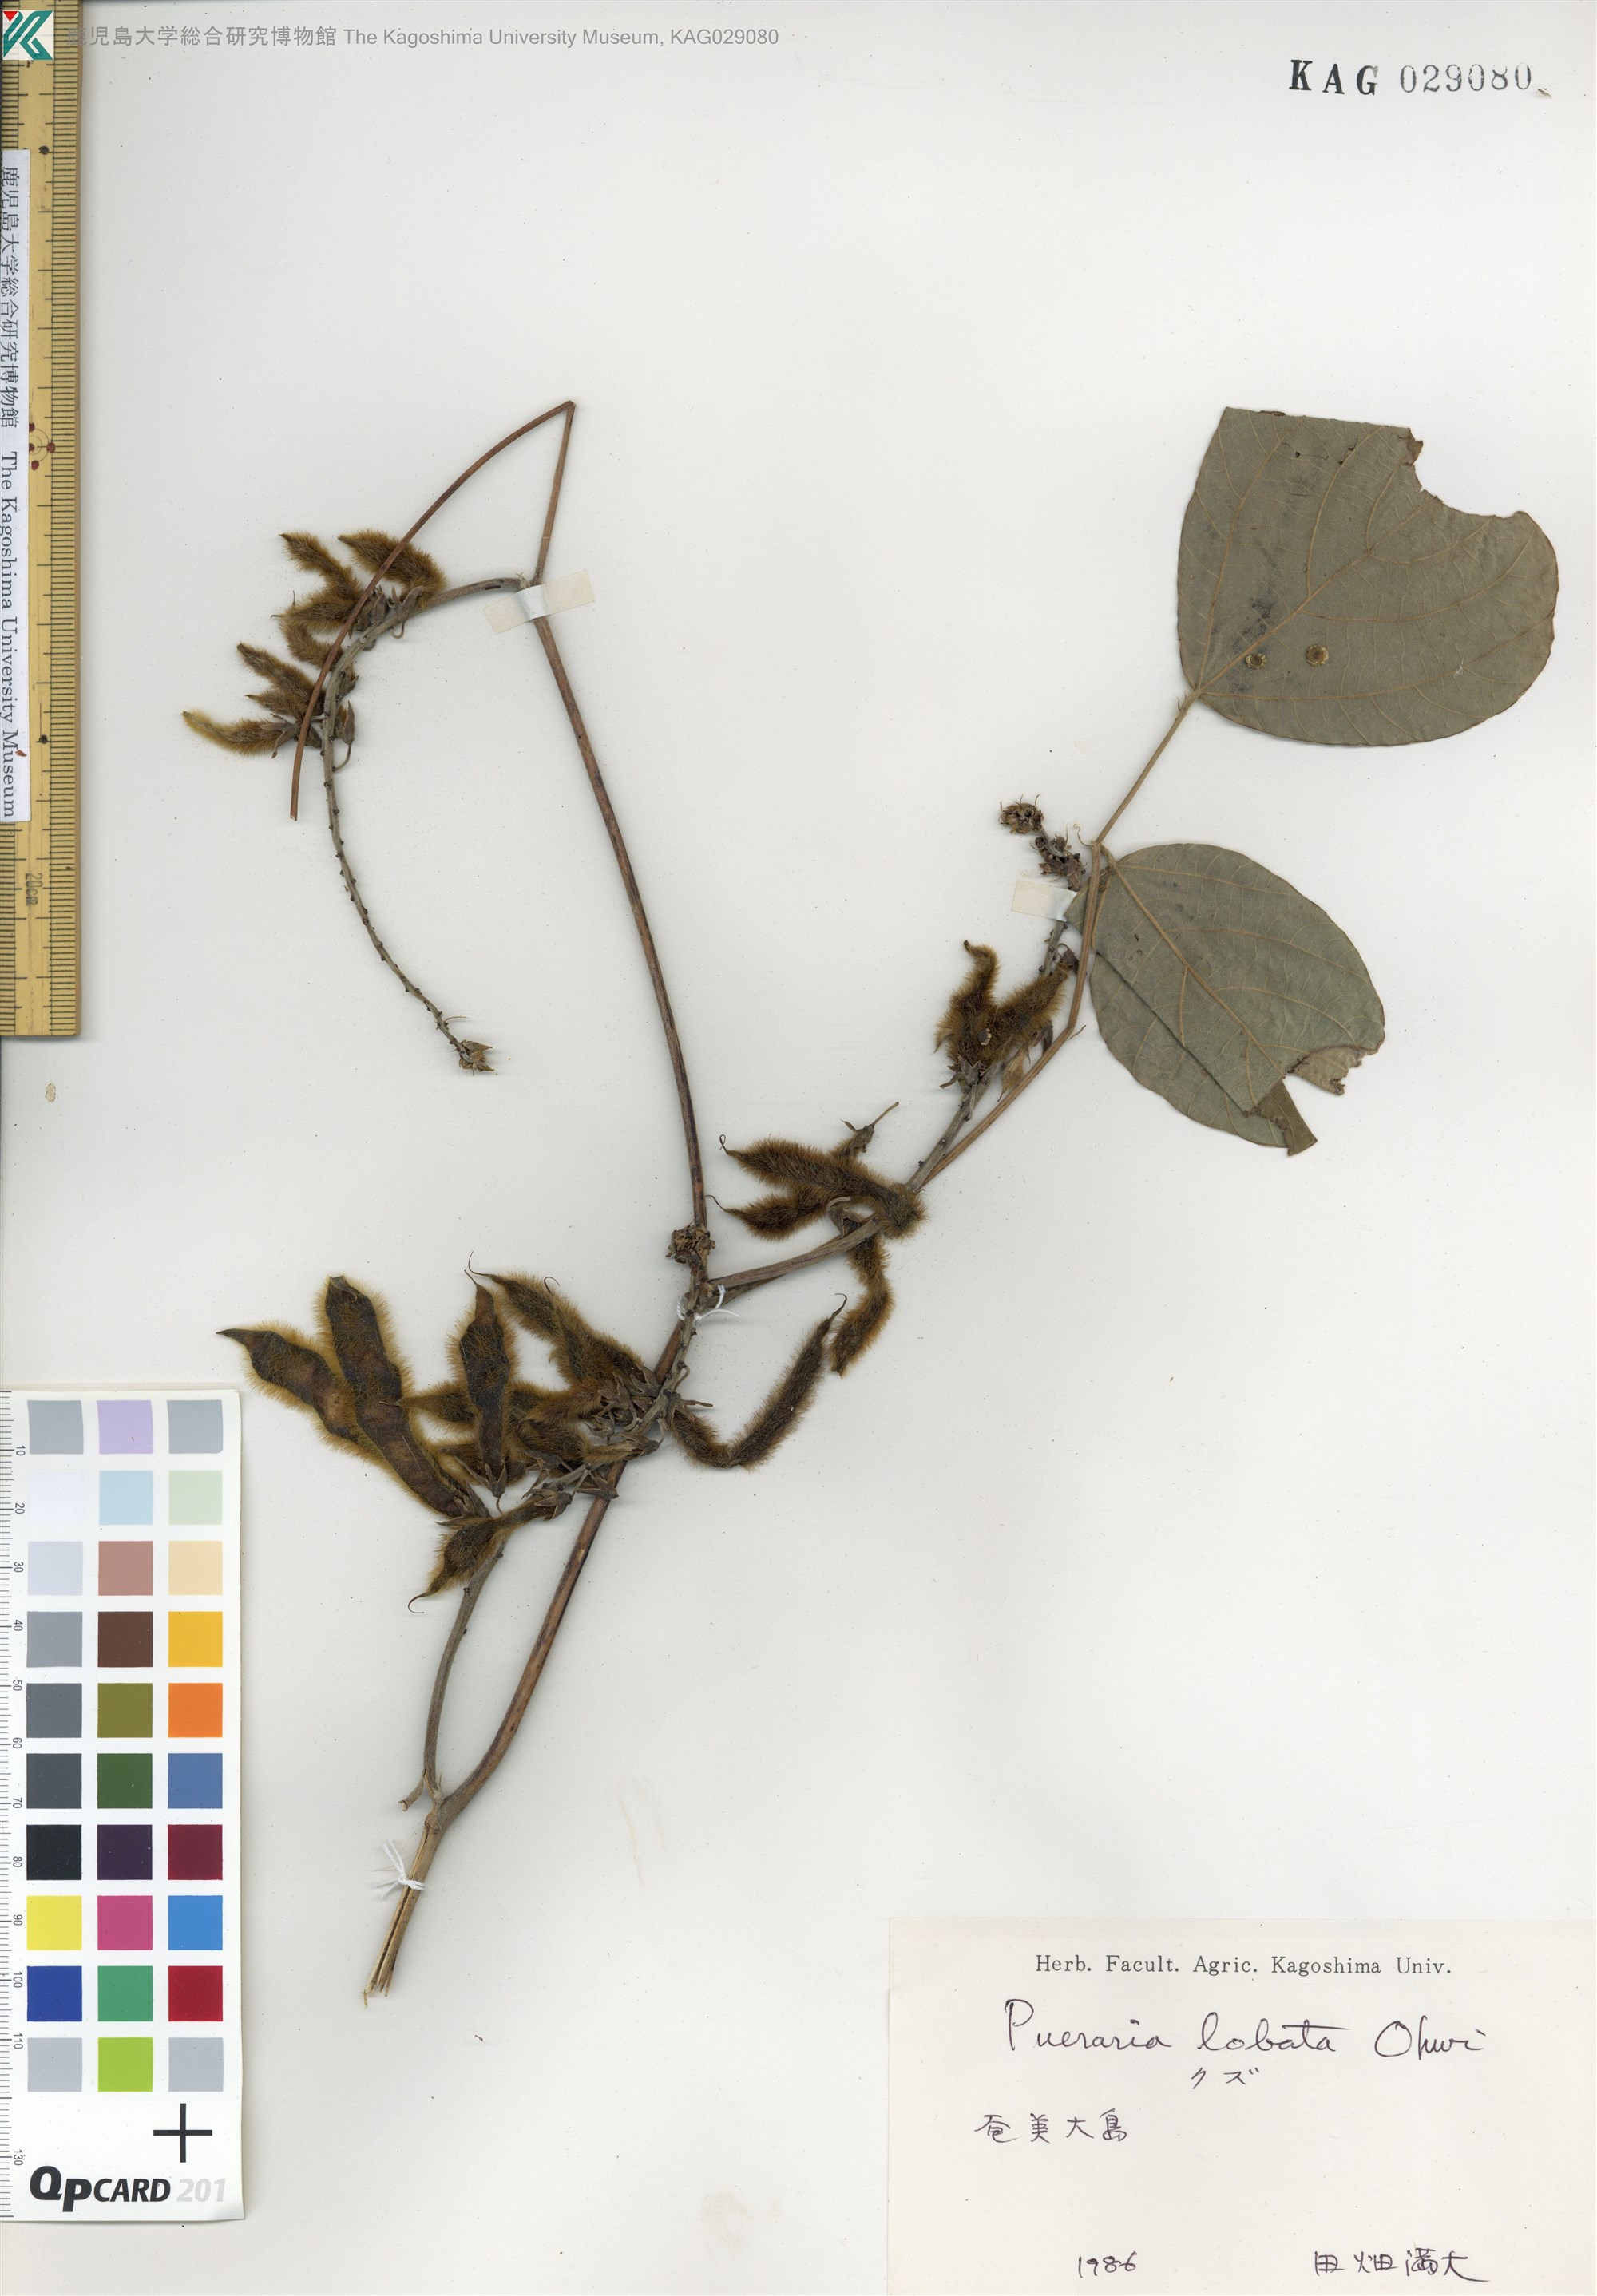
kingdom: Plantae
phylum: Tracheophyta
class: Magnoliopsida
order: Fabales
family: Fabaceae
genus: Pueraria
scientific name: Pueraria montana
